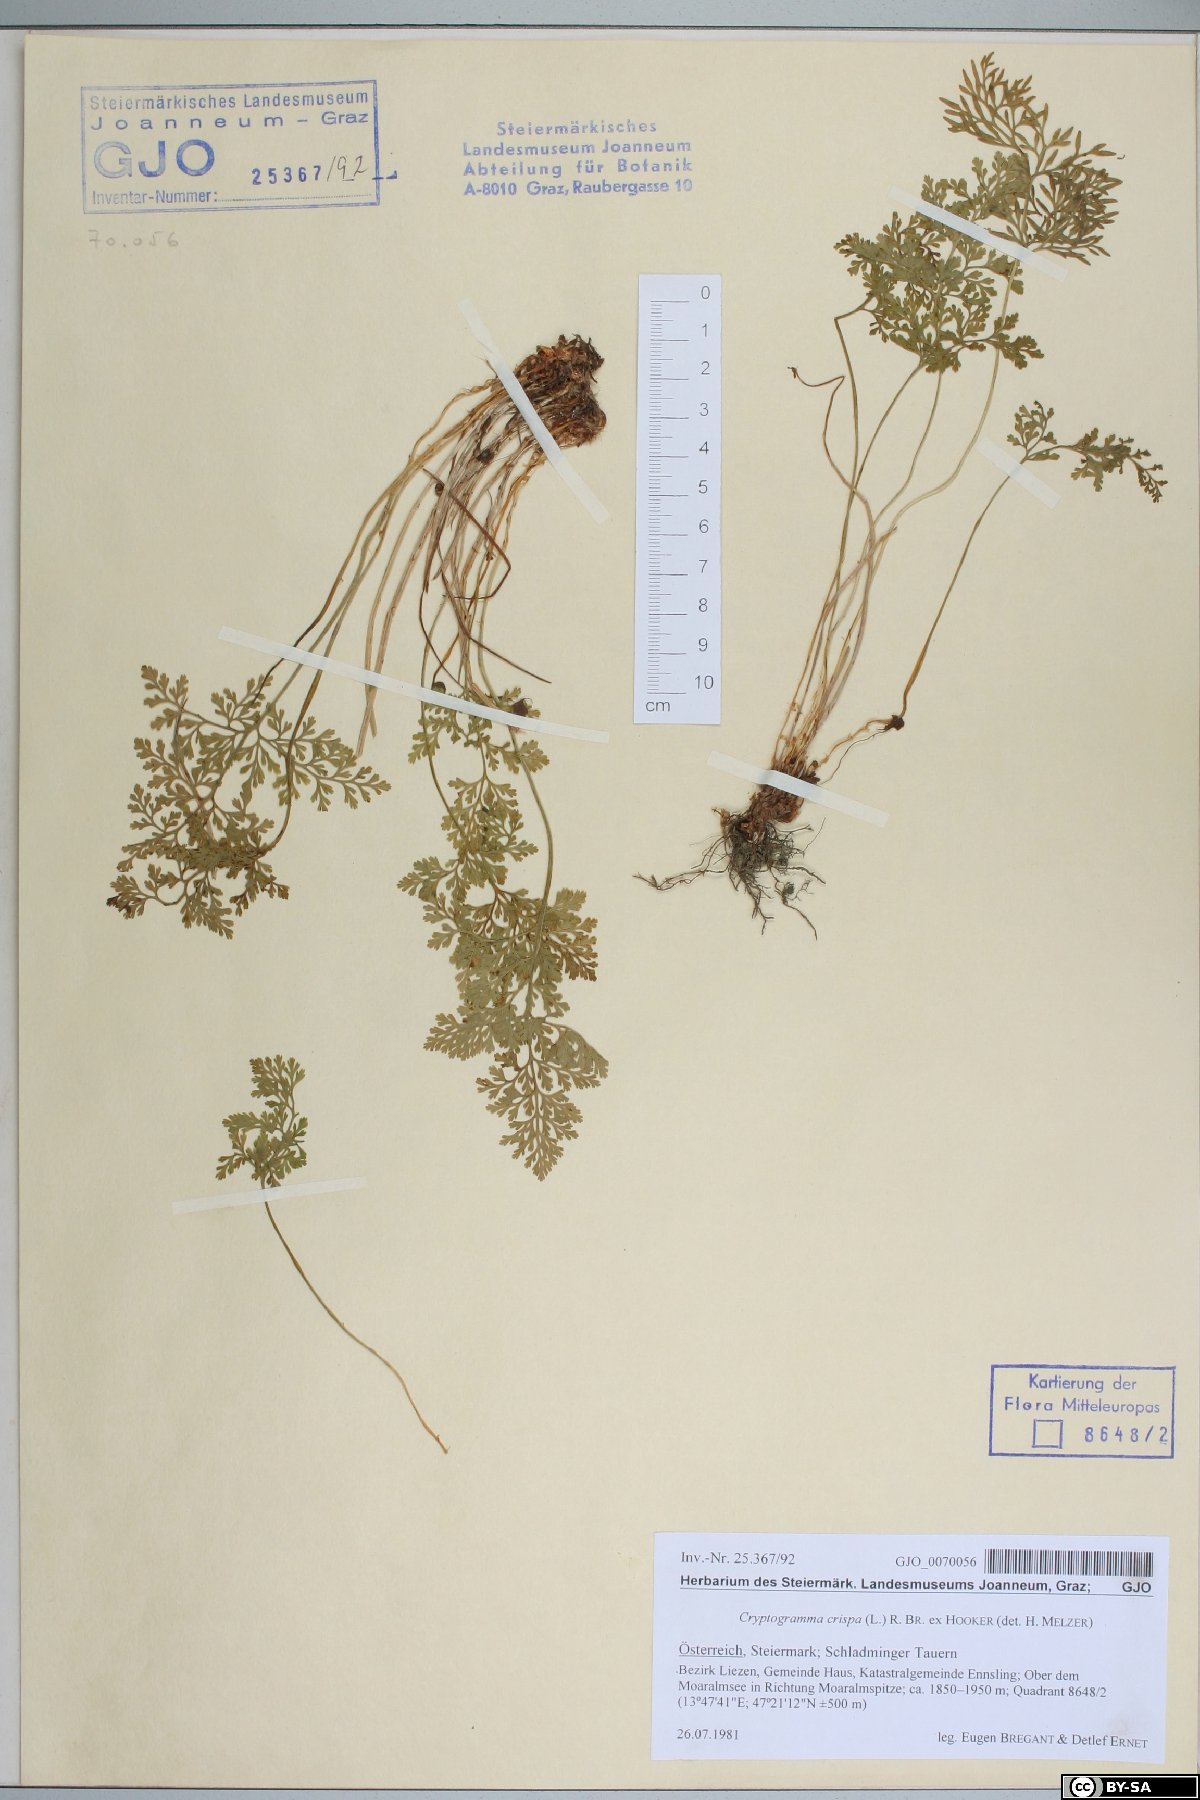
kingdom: Plantae
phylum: Tracheophyta
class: Polypodiopsida
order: Polypodiales
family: Pteridaceae
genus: Cryptogramma
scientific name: Cryptogramma crispa
